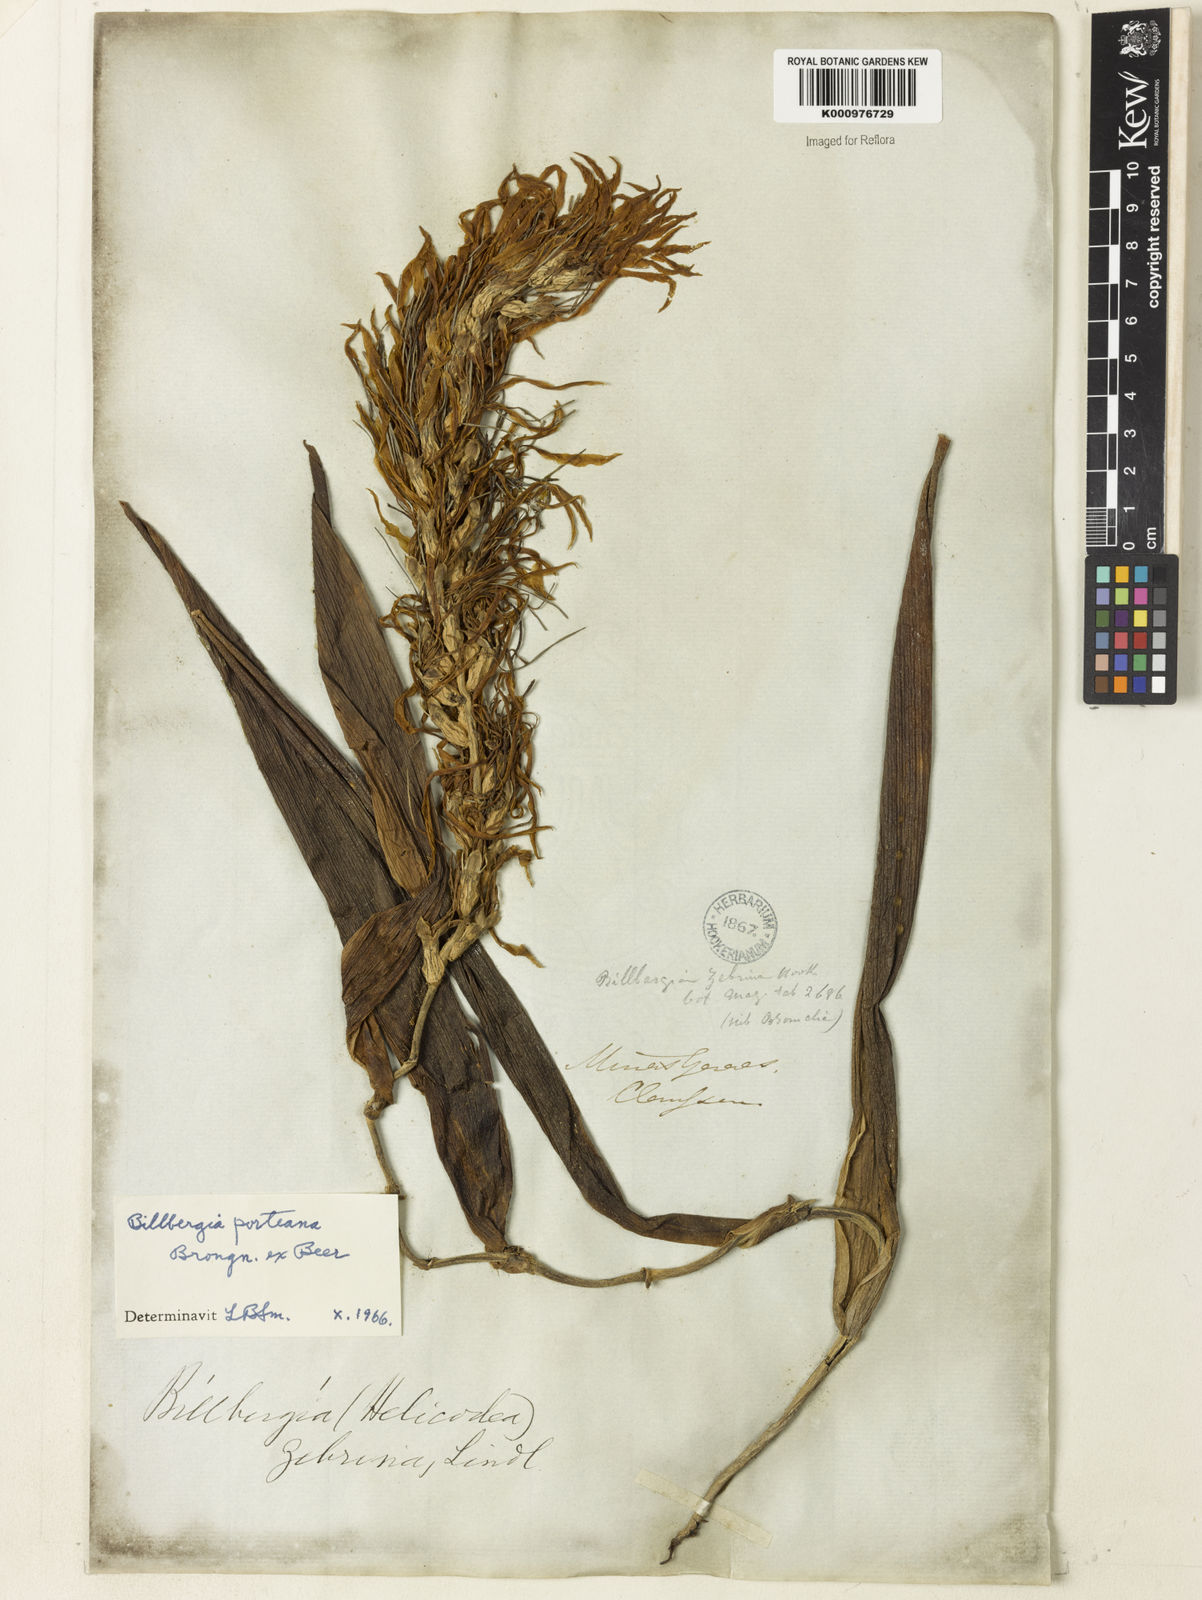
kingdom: Plantae
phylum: Tracheophyta
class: Liliopsida
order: Poales
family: Bromeliaceae
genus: Billbergia
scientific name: Billbergia porteana
